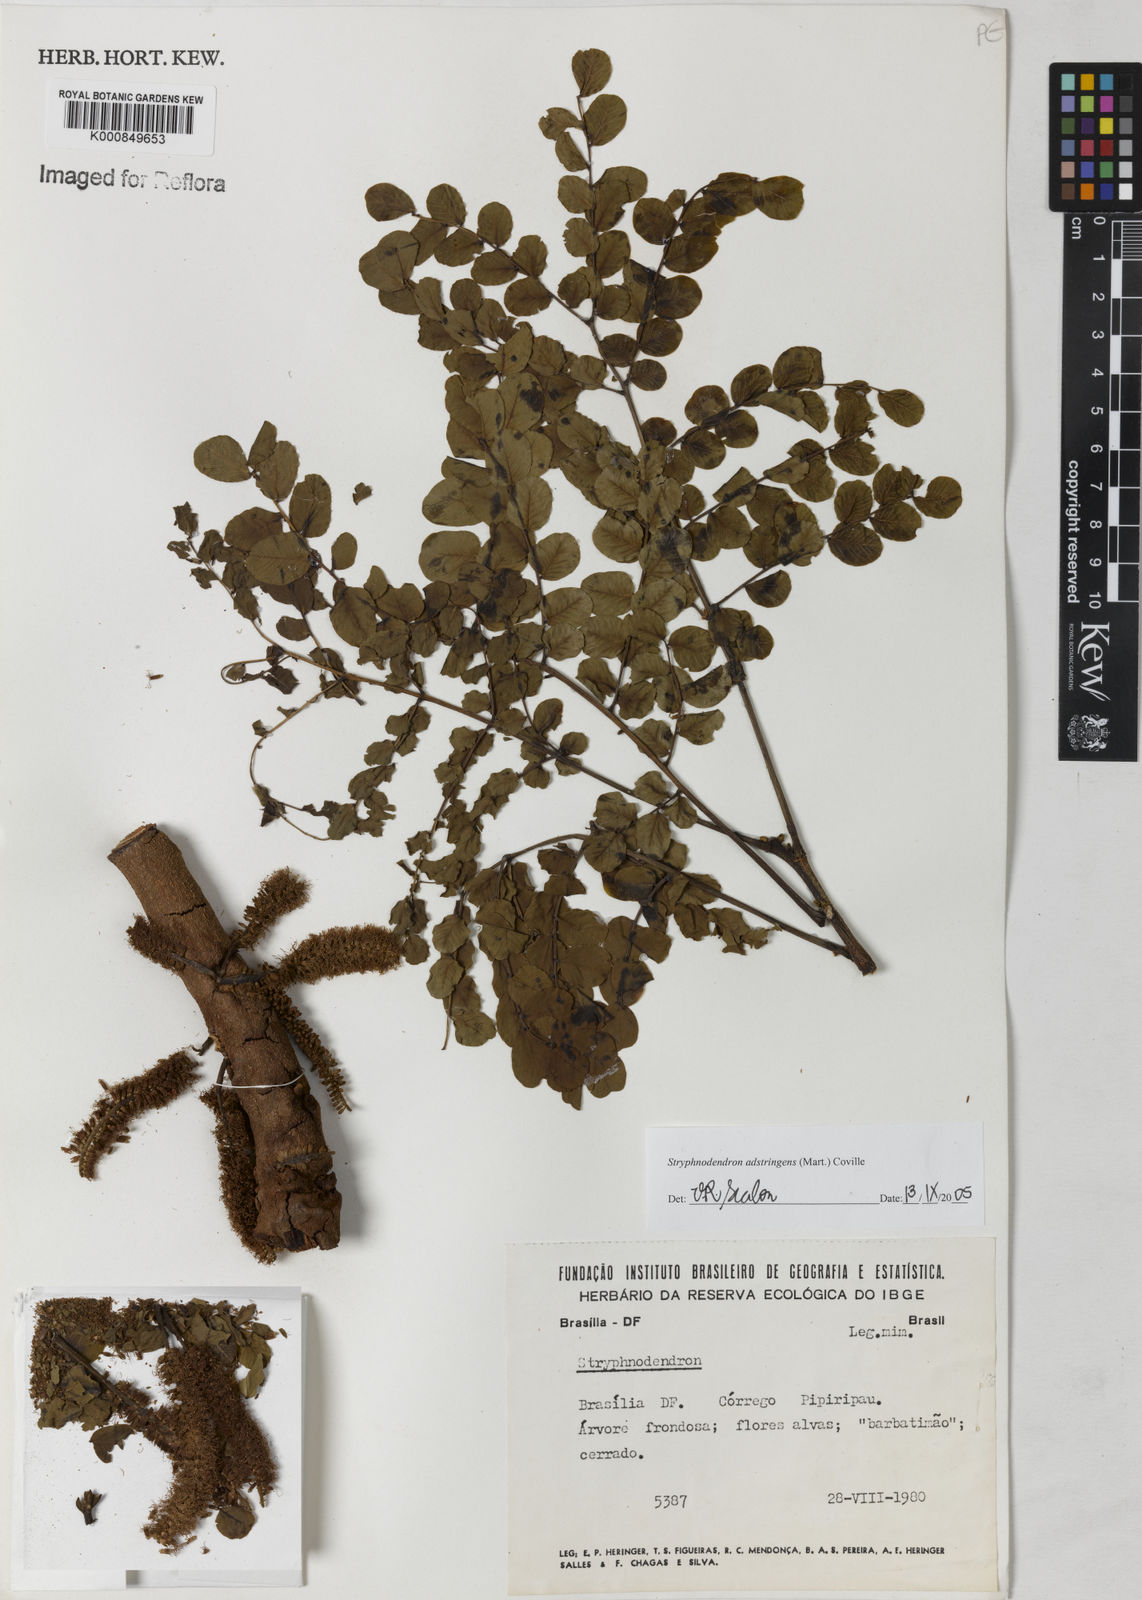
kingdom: Plantae
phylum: Tracheophyta
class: Magnoliopsida
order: Fabales
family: Fabaceae
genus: Stryphnodendron
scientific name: Stryphnodendron adstringens
